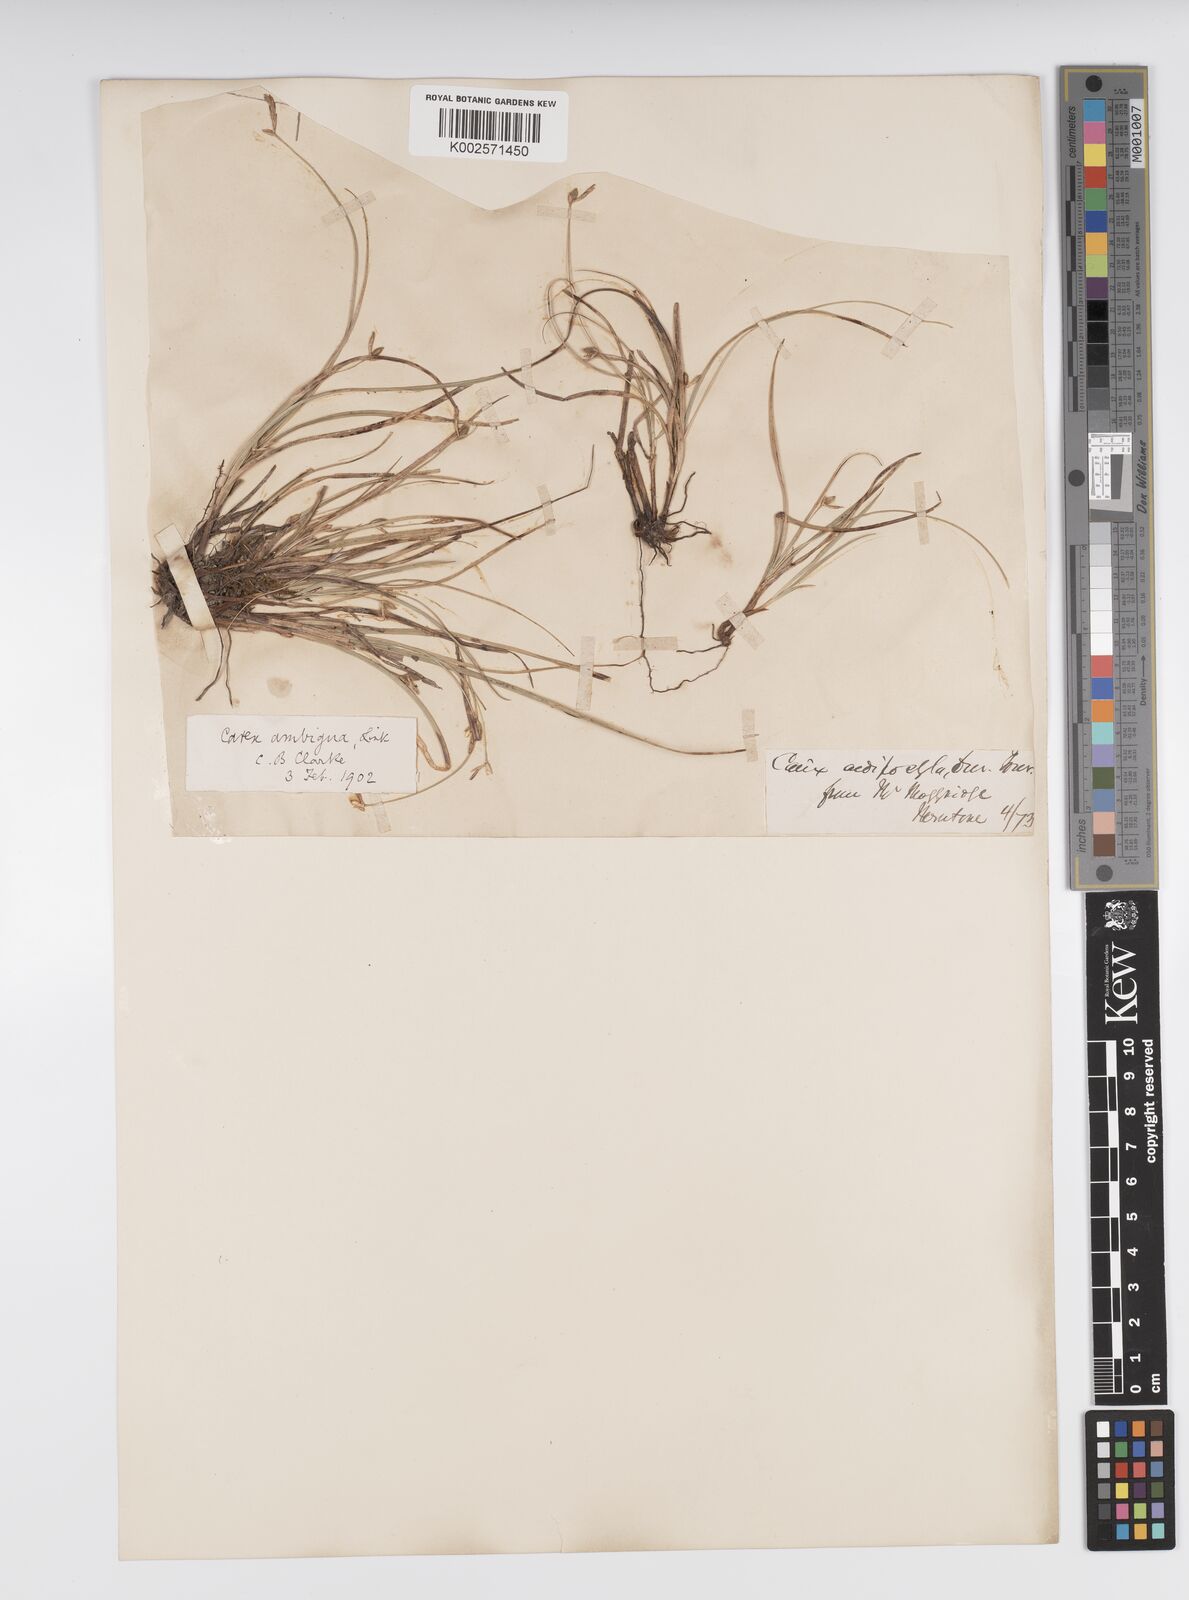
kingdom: Plantae
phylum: Tracheophyta
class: Liliopsida
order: Poales
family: Cyperaceae
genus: Carex
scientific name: Carex oedipostyla
